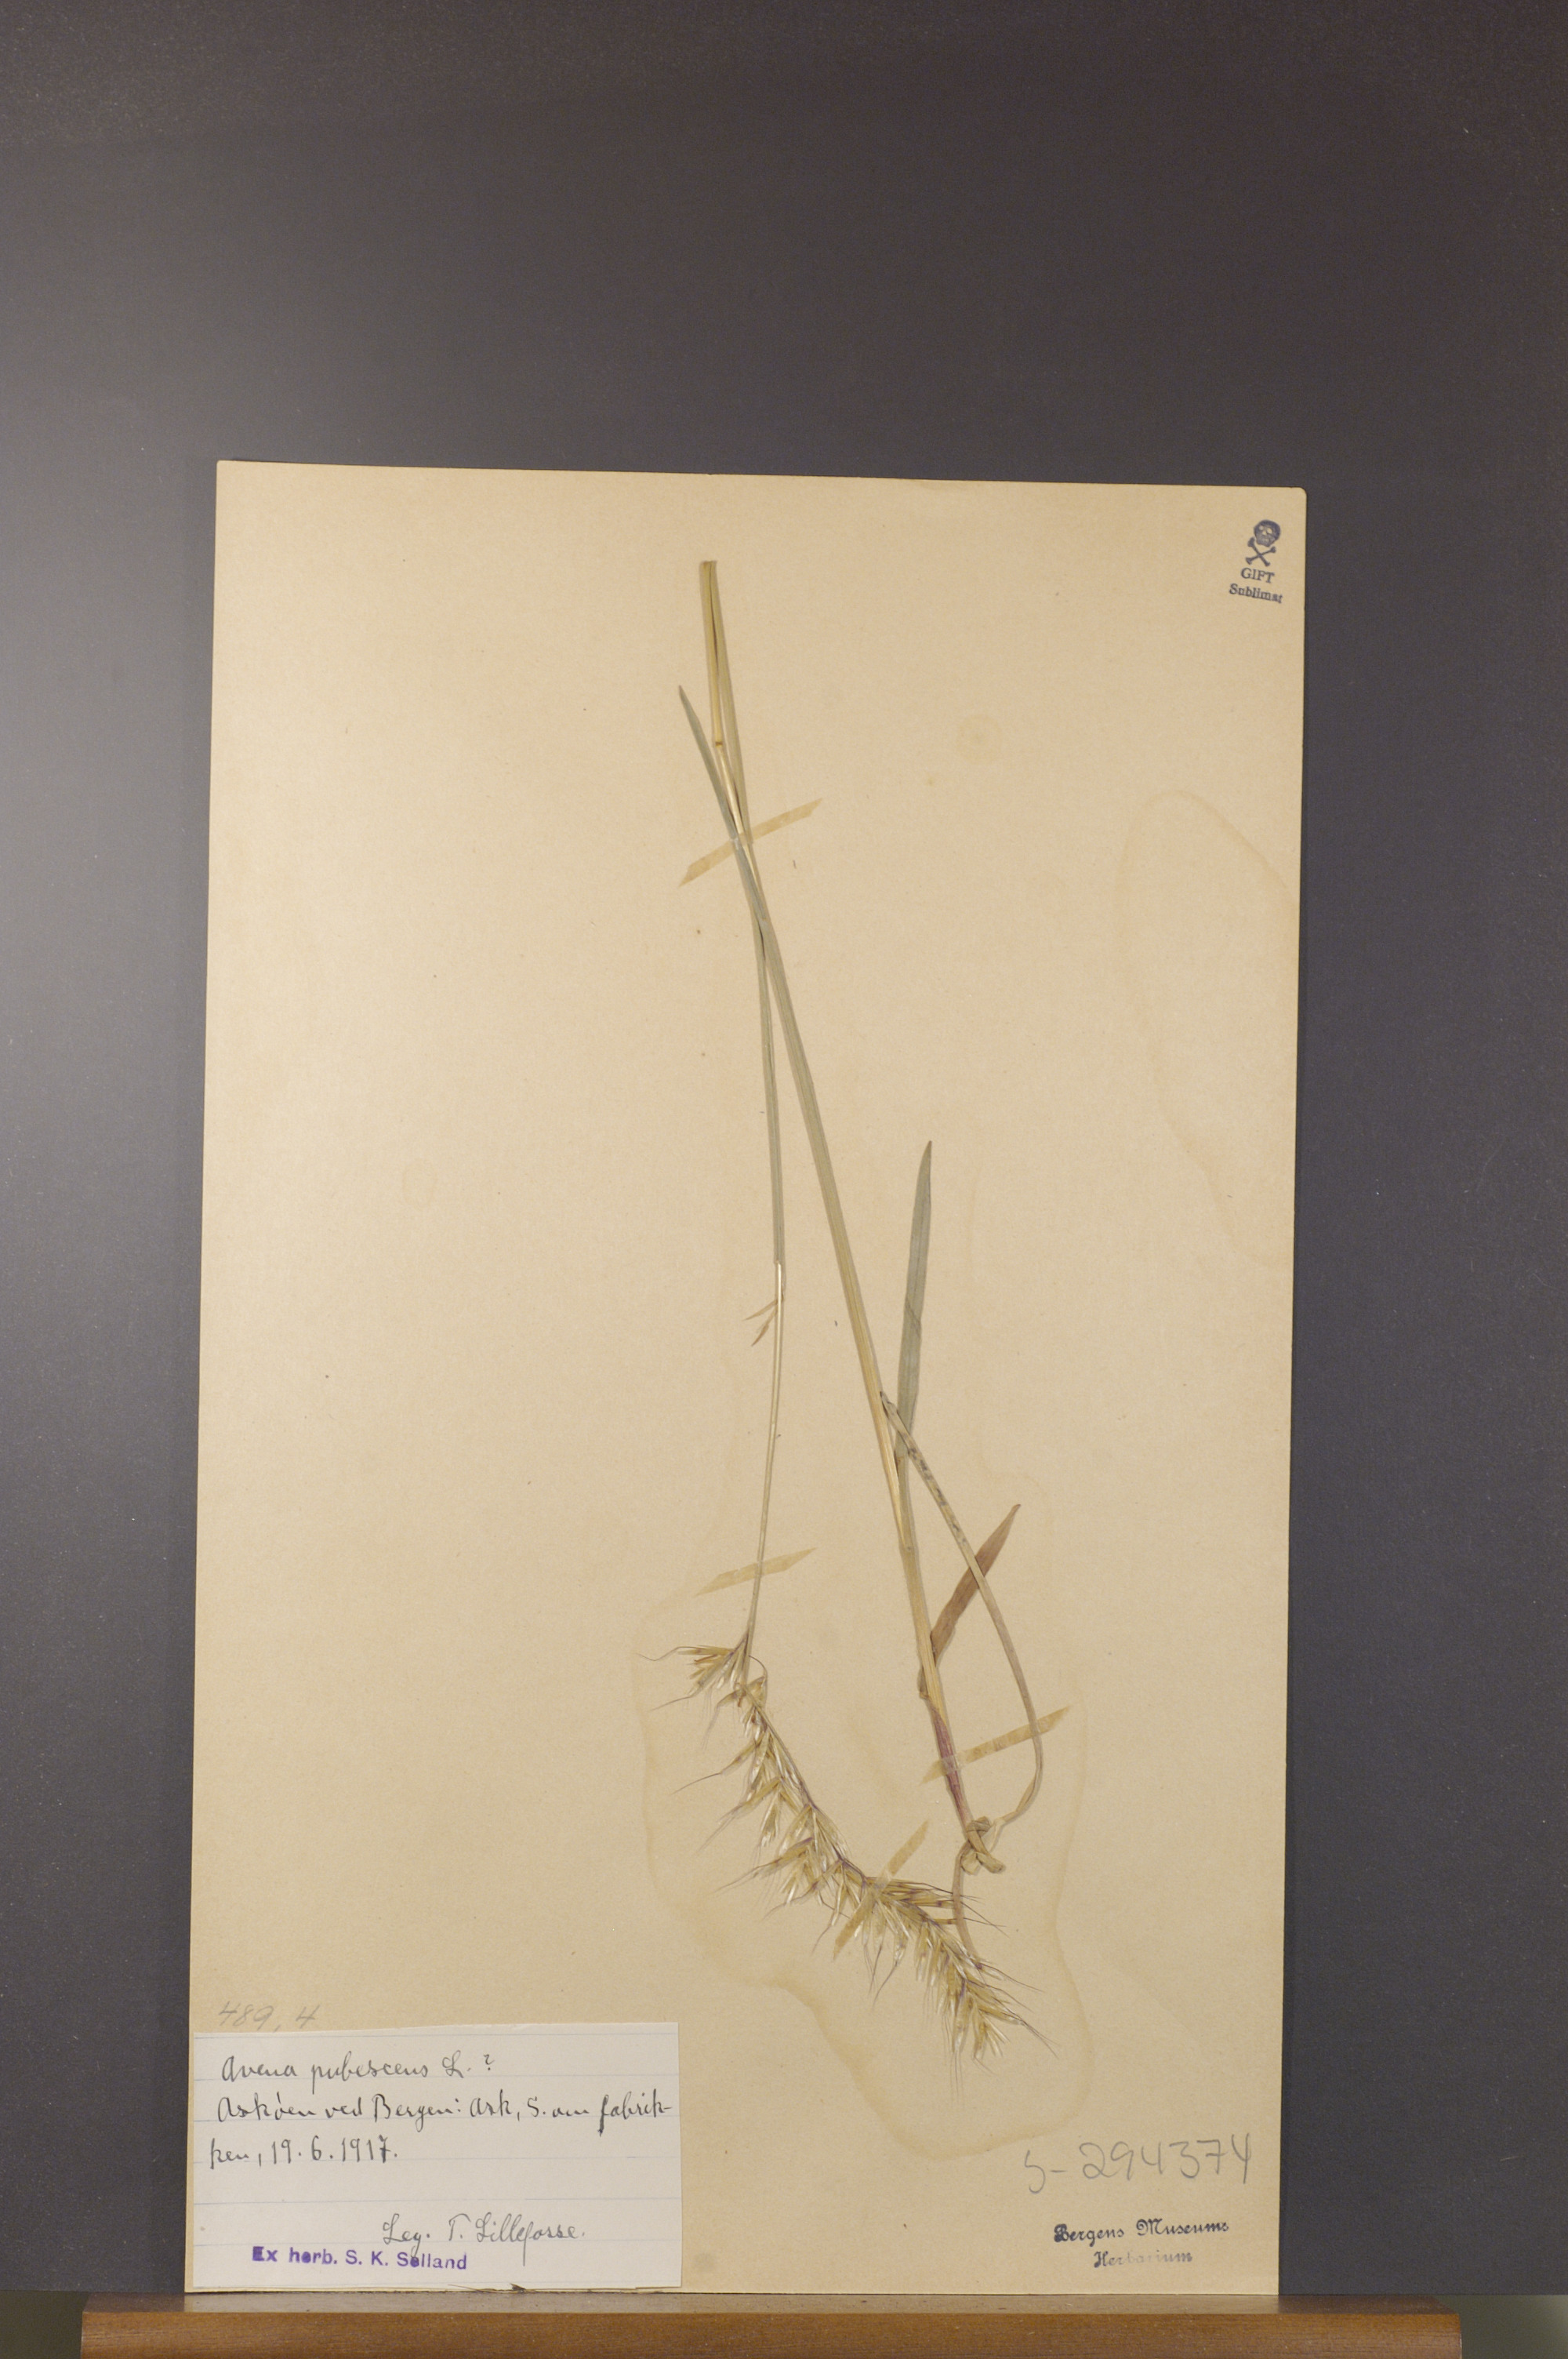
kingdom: Plantae
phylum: Tracheophyta
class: Liliopsida
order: Poales
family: Poaceae
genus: Avenula
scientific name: Avenula pubescens
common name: Downy alpine oatgrass
